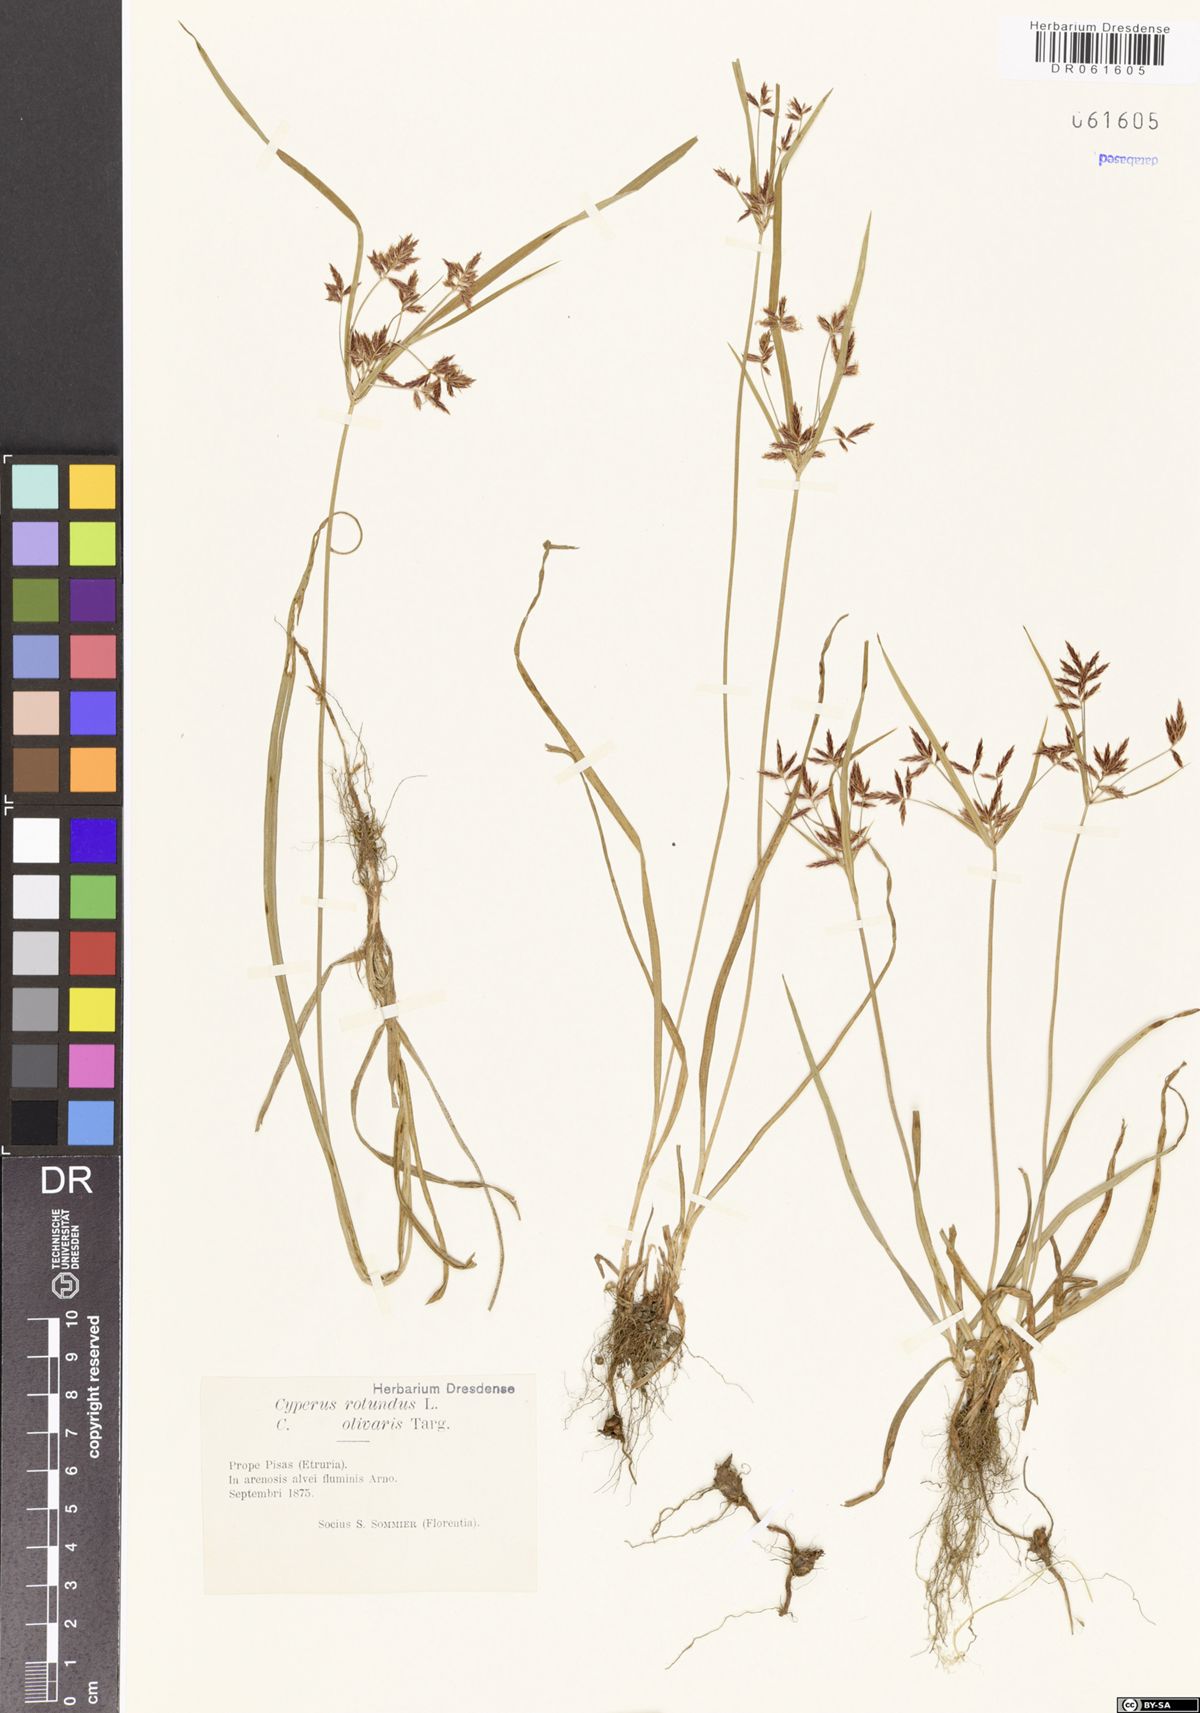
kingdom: Plantae
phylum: Tracheophyta
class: Liliopsida
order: Poales
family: Cyperaceae
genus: Cyperus
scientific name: Cyperus rotundus
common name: Nutgrass
